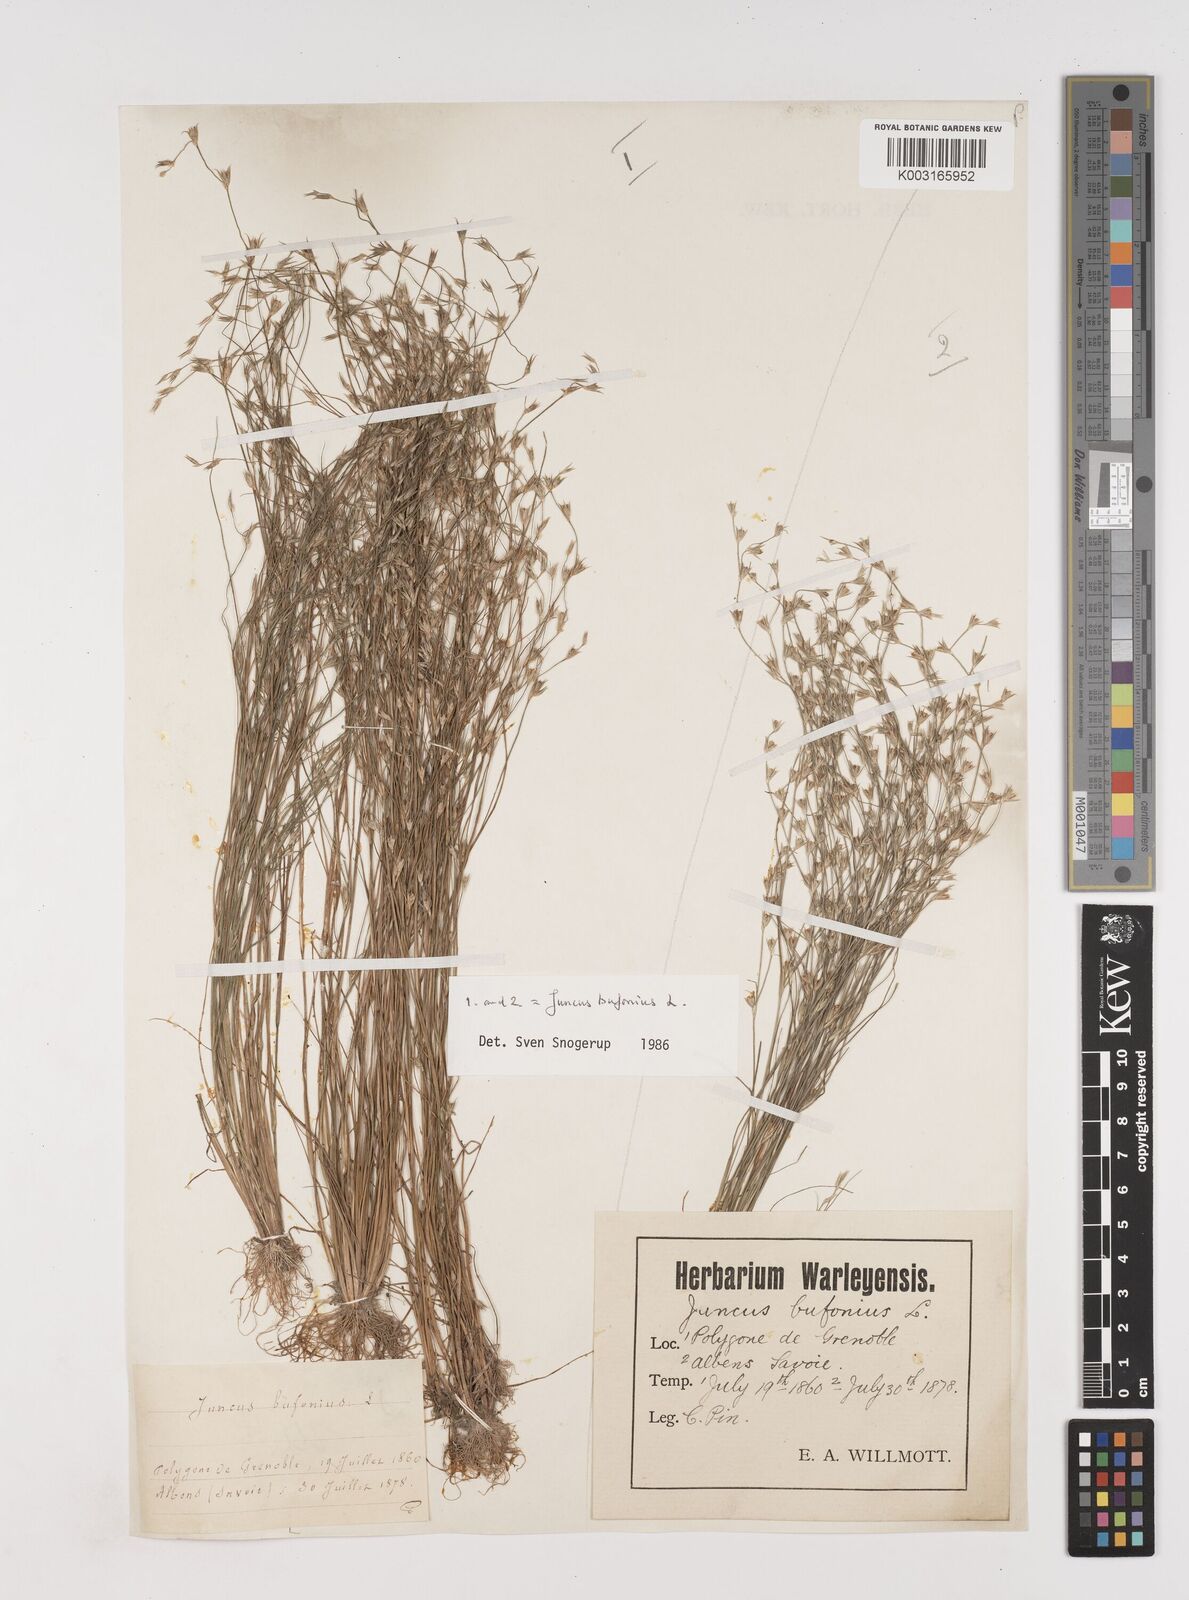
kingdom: Plantae
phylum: Tracheophyta
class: Liliopsida
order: Poales
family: Juncaceae
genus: Juncus
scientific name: Juncus bufonius
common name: Toad rush
